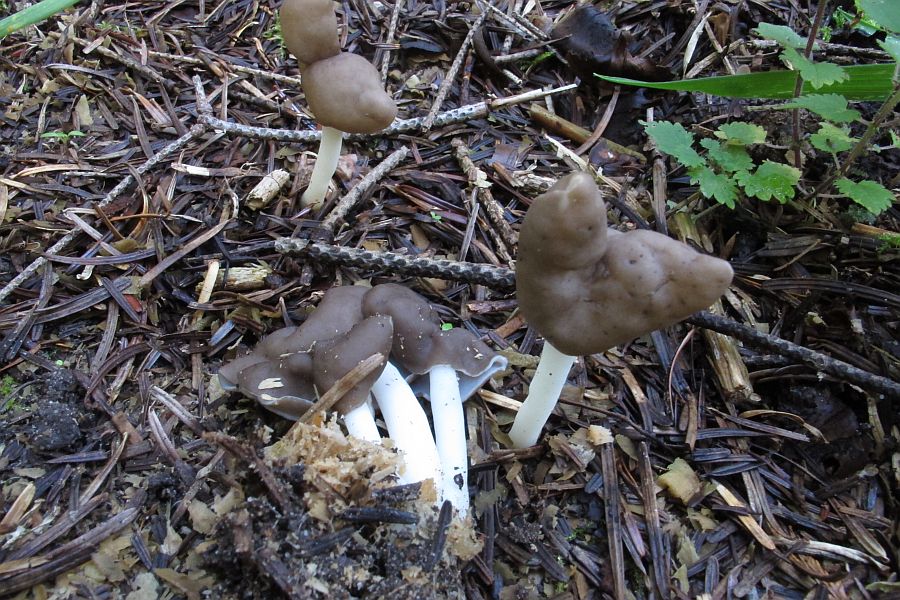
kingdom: Fungi
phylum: Ascomycota
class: Pezizomycetes
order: Pezizales
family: Helvellaceae
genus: Helvella
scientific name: Helvella
